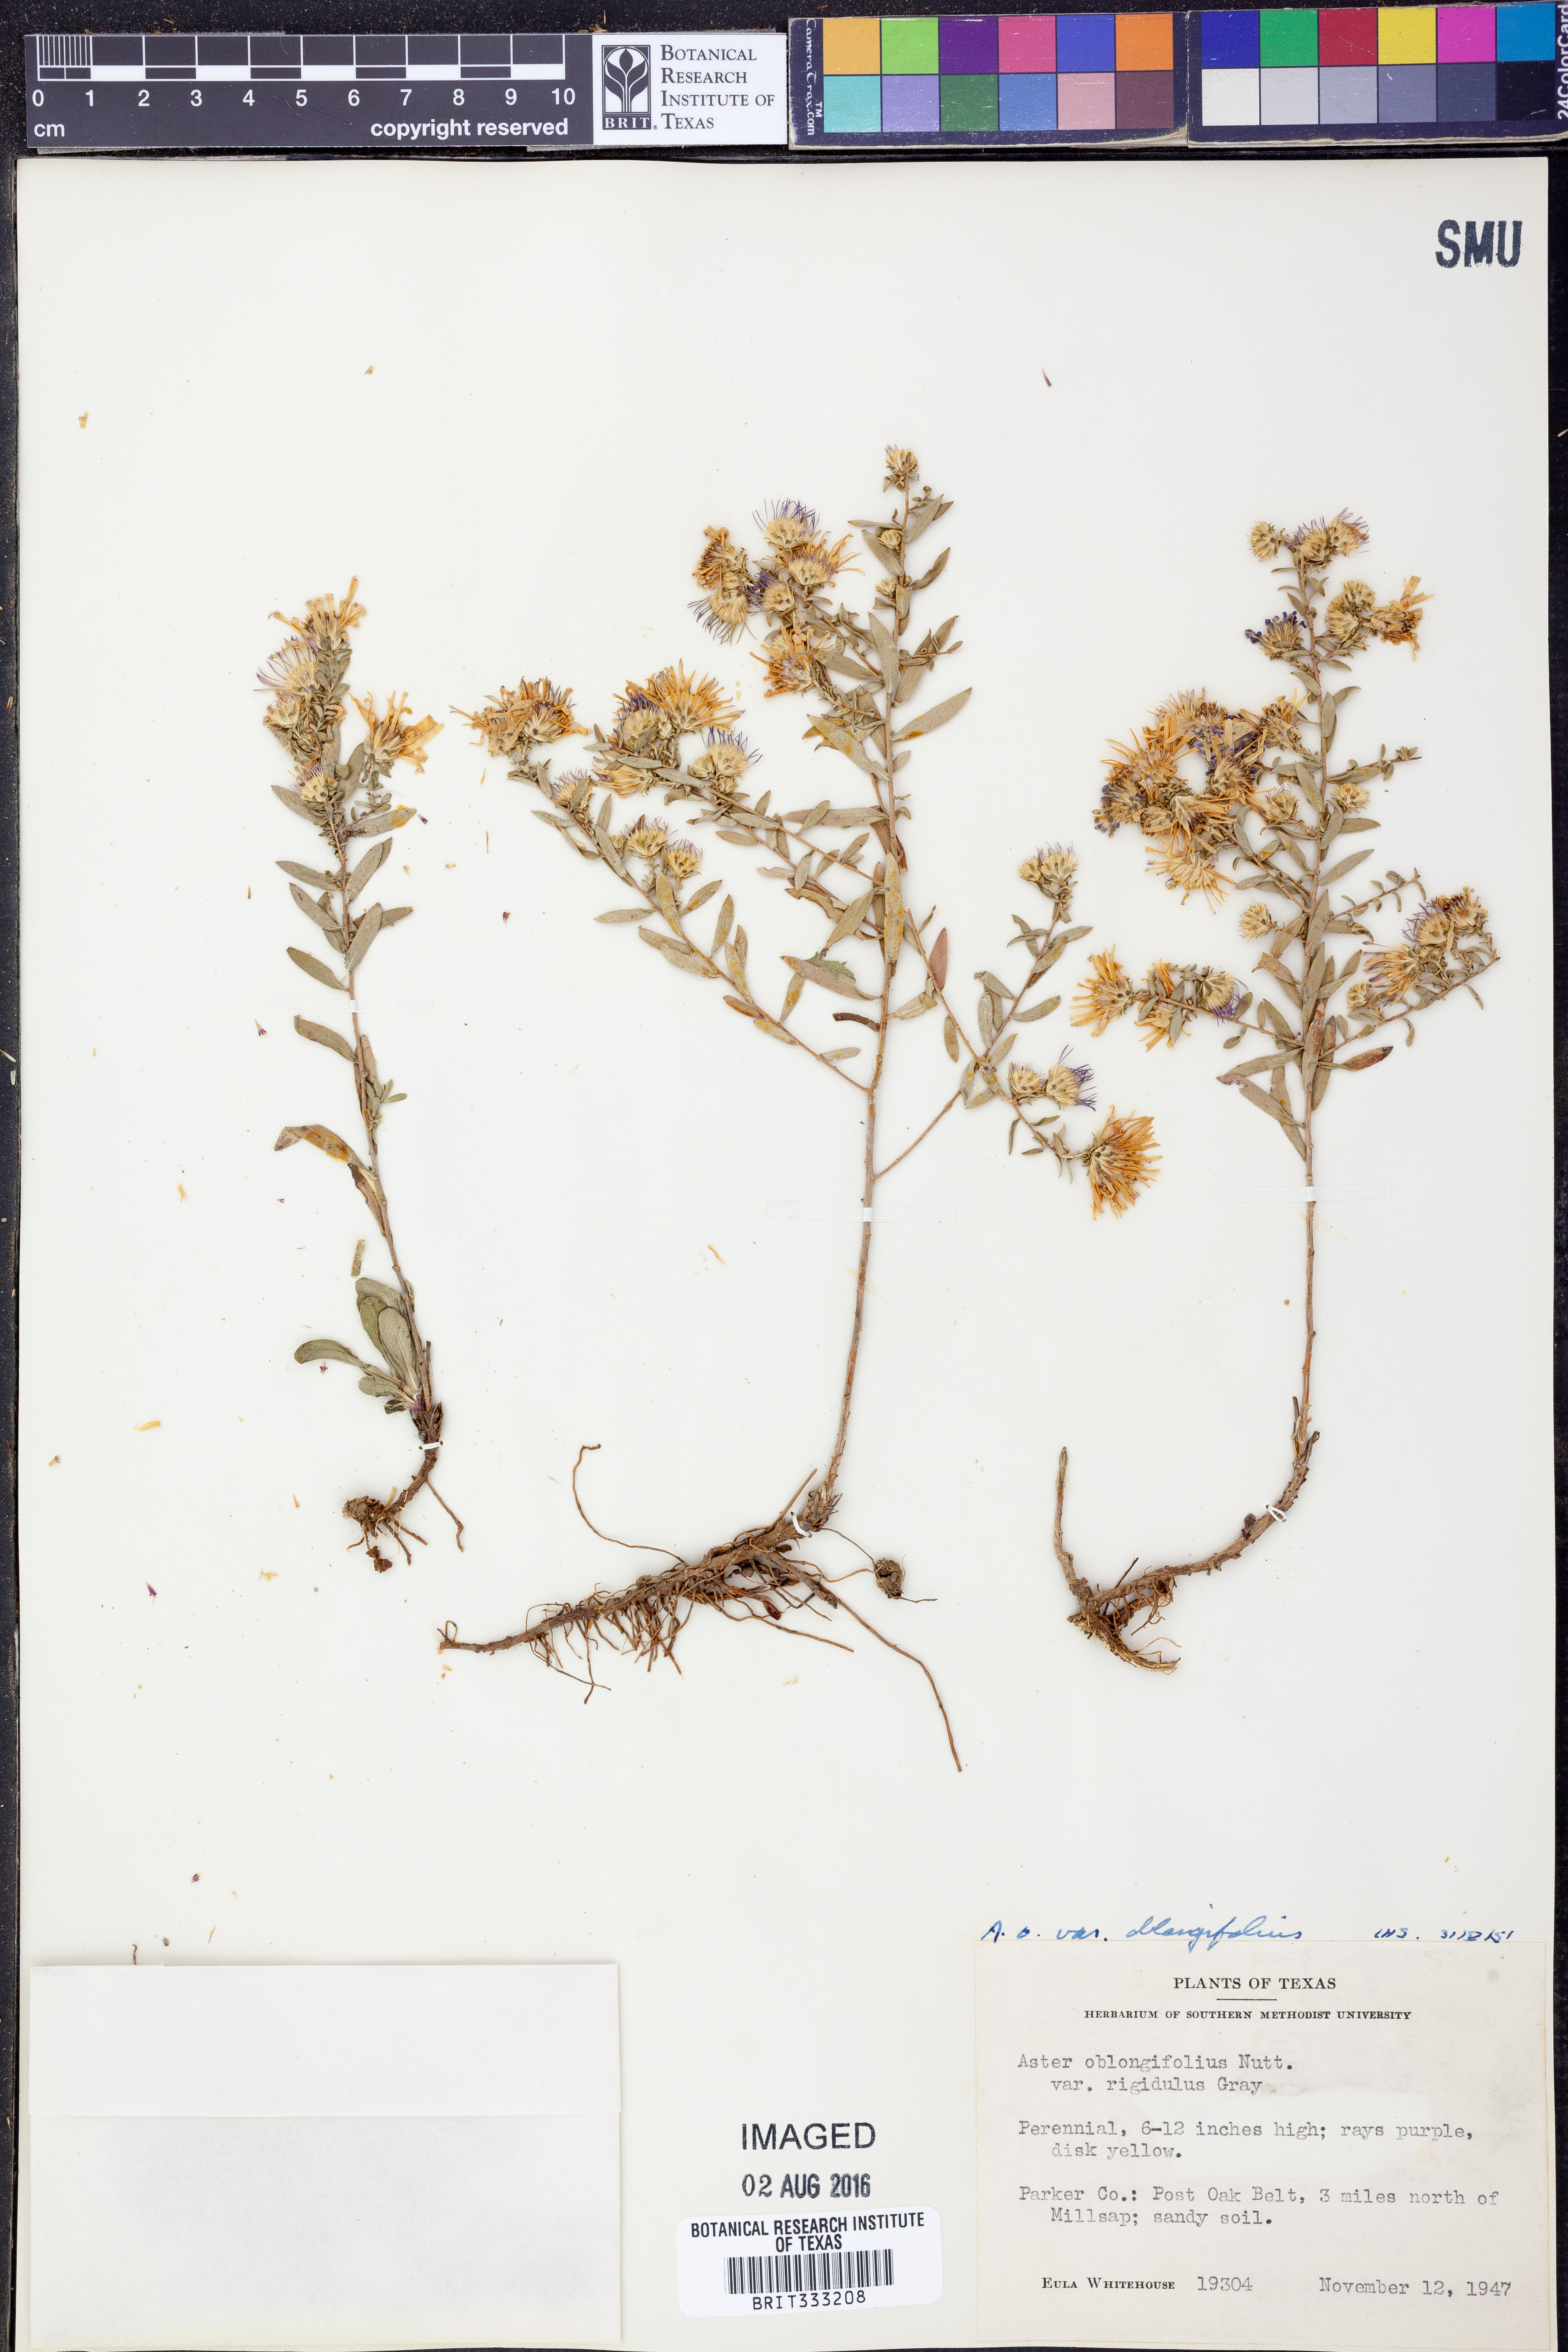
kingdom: Plantae
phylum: Tracheophyta
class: Magnoliopsida
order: Asterales
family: Asteraceae
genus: Symphyotrichum
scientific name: Symphyotrichum oblongifolium
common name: Aromatic aster
